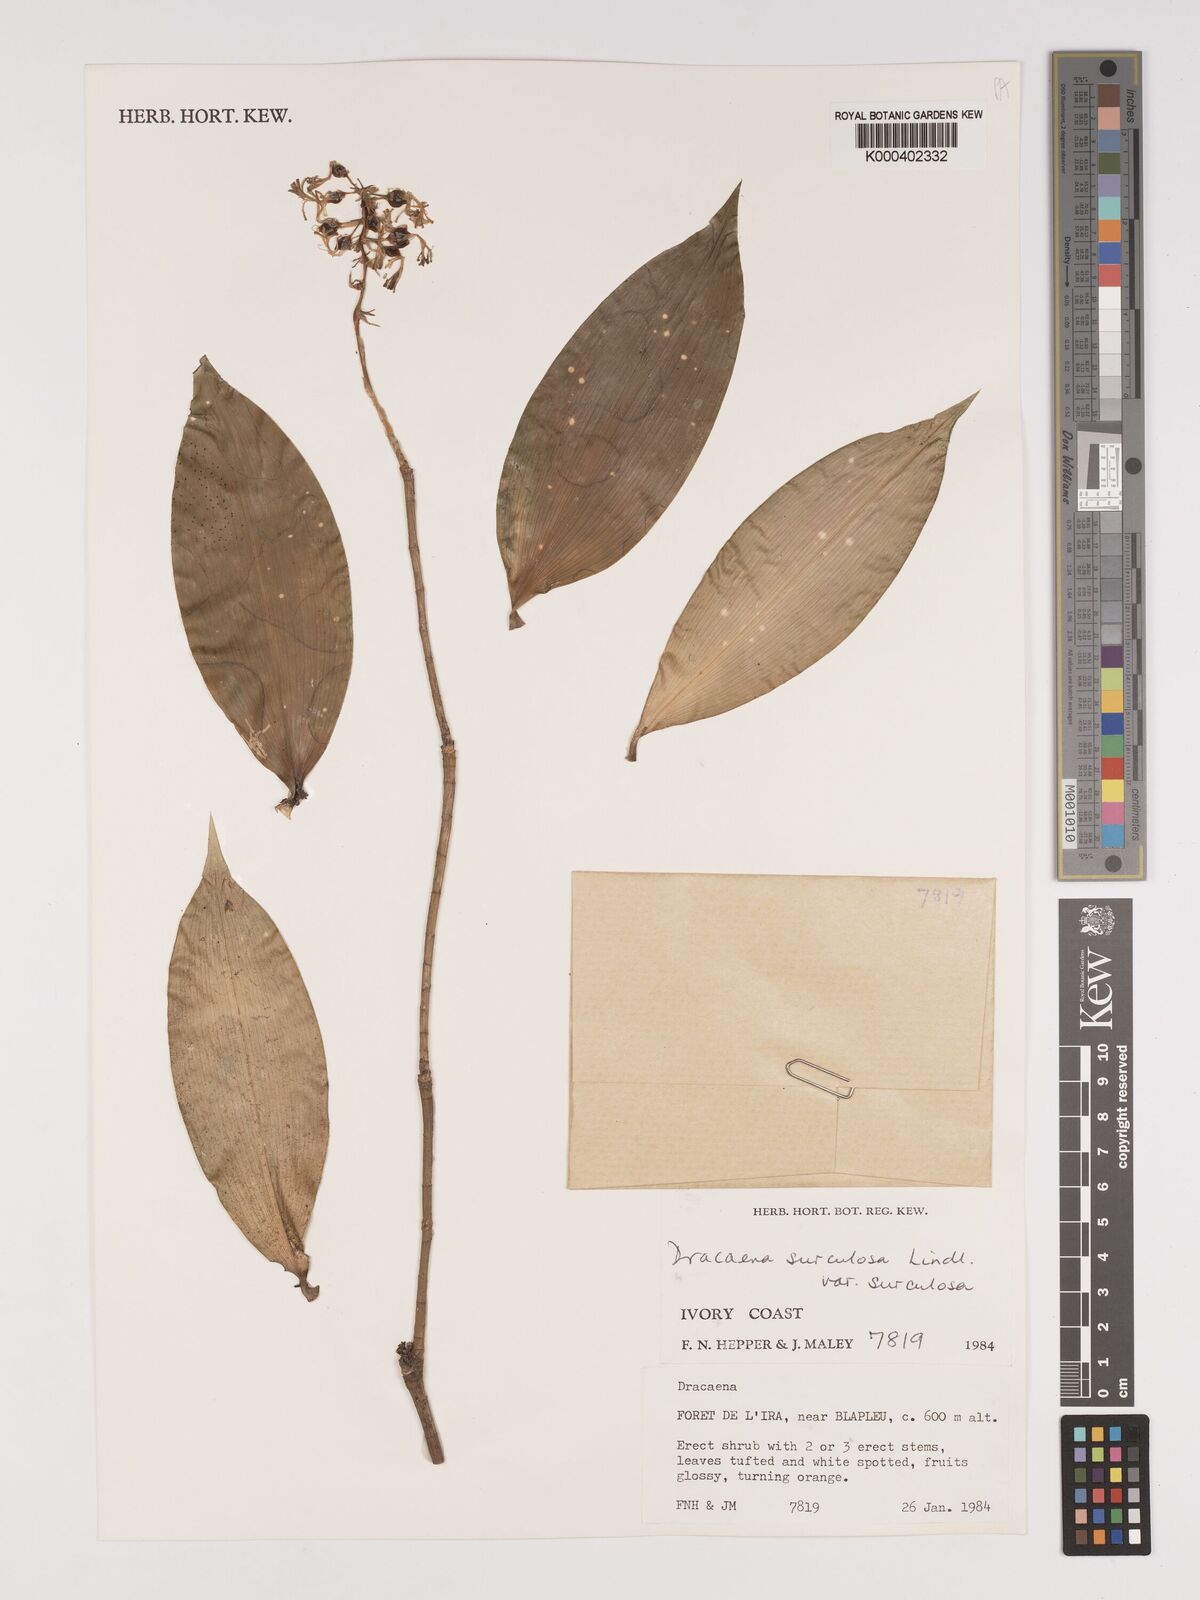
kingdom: Plantae
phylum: Tracheophyta
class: Liliopsida
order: Asparagales
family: Asparagaceae
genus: Dracaena
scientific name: Dracaena surculosa
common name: Spotted dracaena
